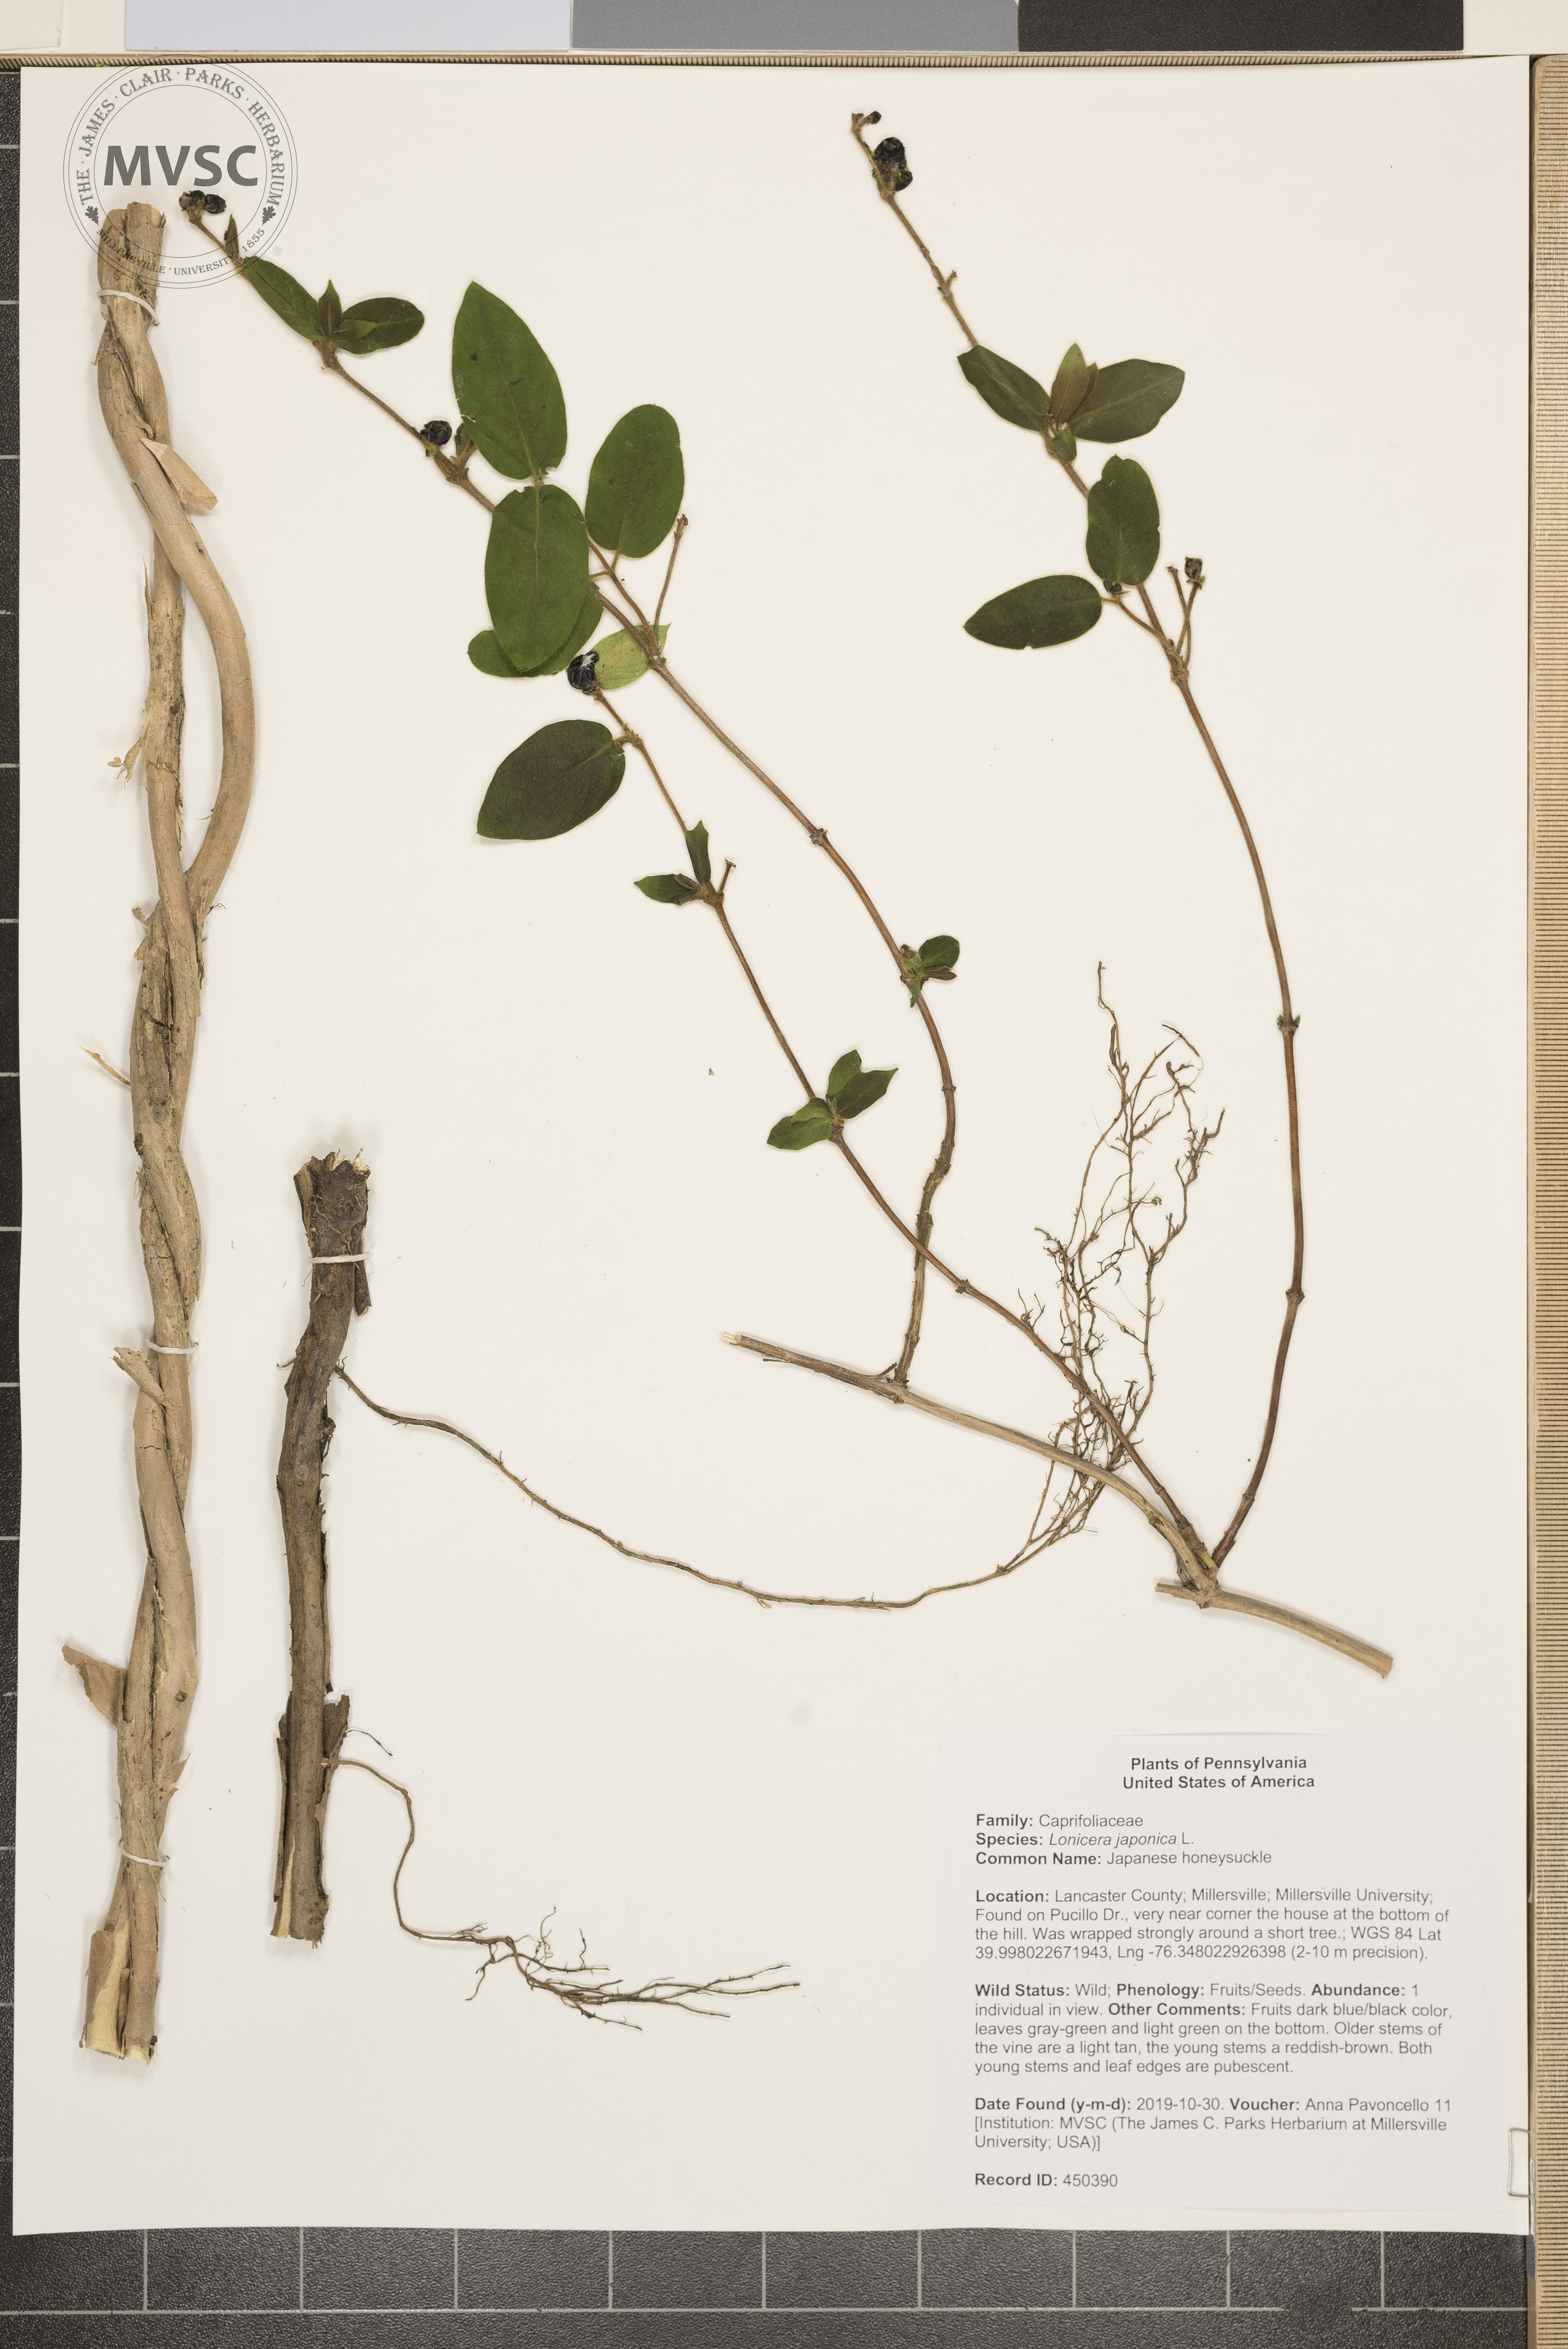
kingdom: Plantae
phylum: Tracheophyta
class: Magnoliopsida
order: Dipsacales
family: Caprifoliaceae
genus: Lonicera
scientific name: Lonicera japonica
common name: Japanese honeysuckle
